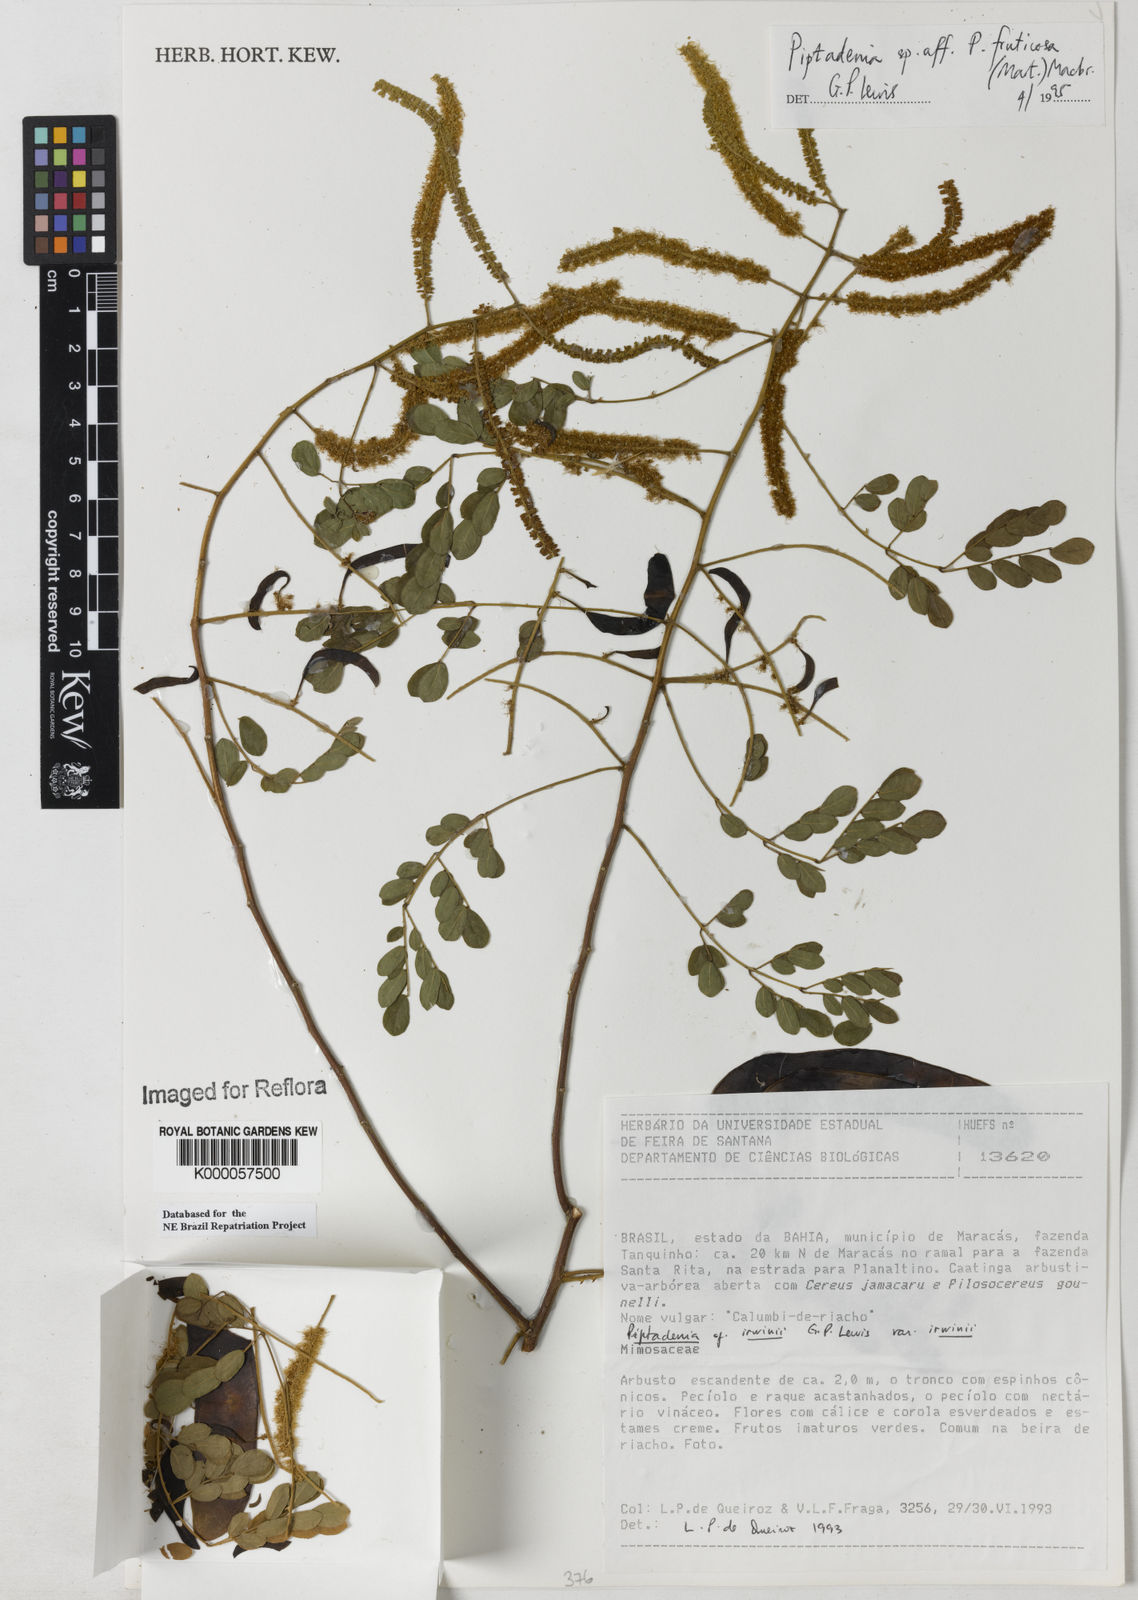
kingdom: Plantae
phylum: Tracheophyta
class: Magnoliopsida
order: Fabales
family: Fabaceae
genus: Piptadenia
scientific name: Piptadenia irwinii
